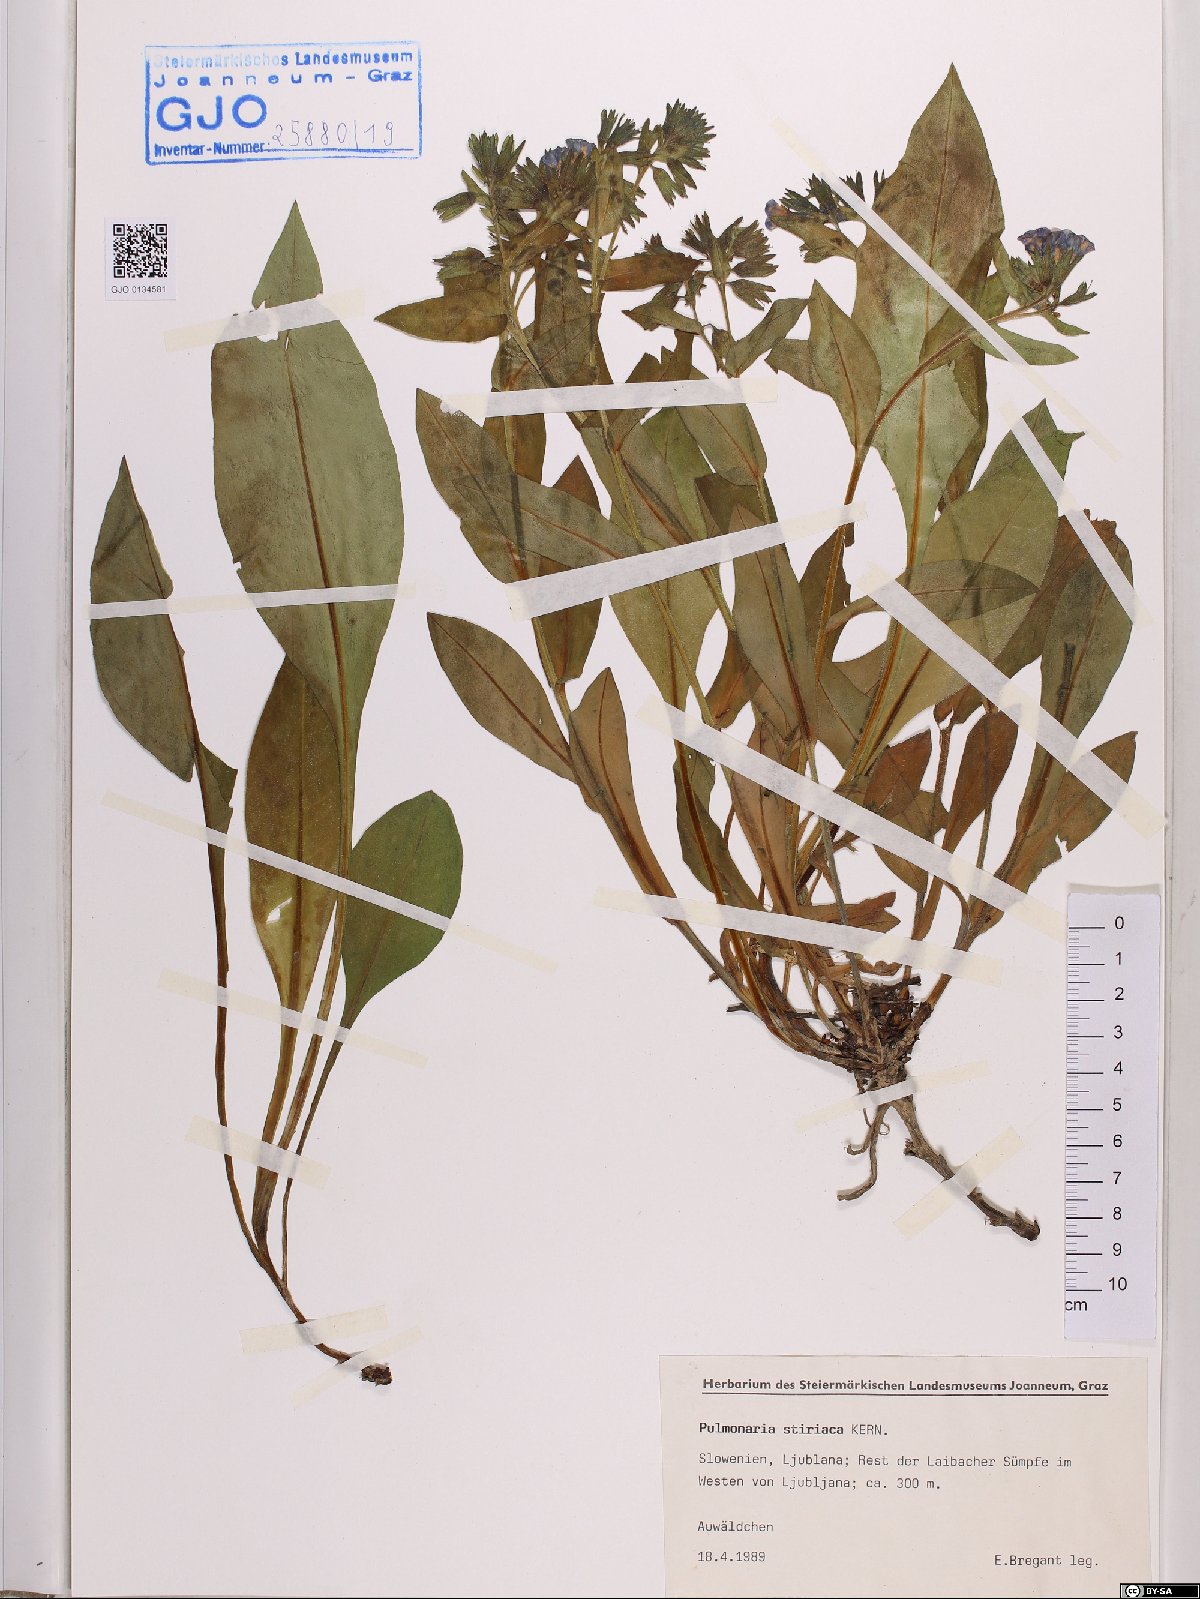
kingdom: Plantae
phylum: Tracheophyta
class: Magnoliopsida
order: Boraginales
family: Boraginaceae
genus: Pulmonaria
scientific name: Pulmonaria stiriaca
